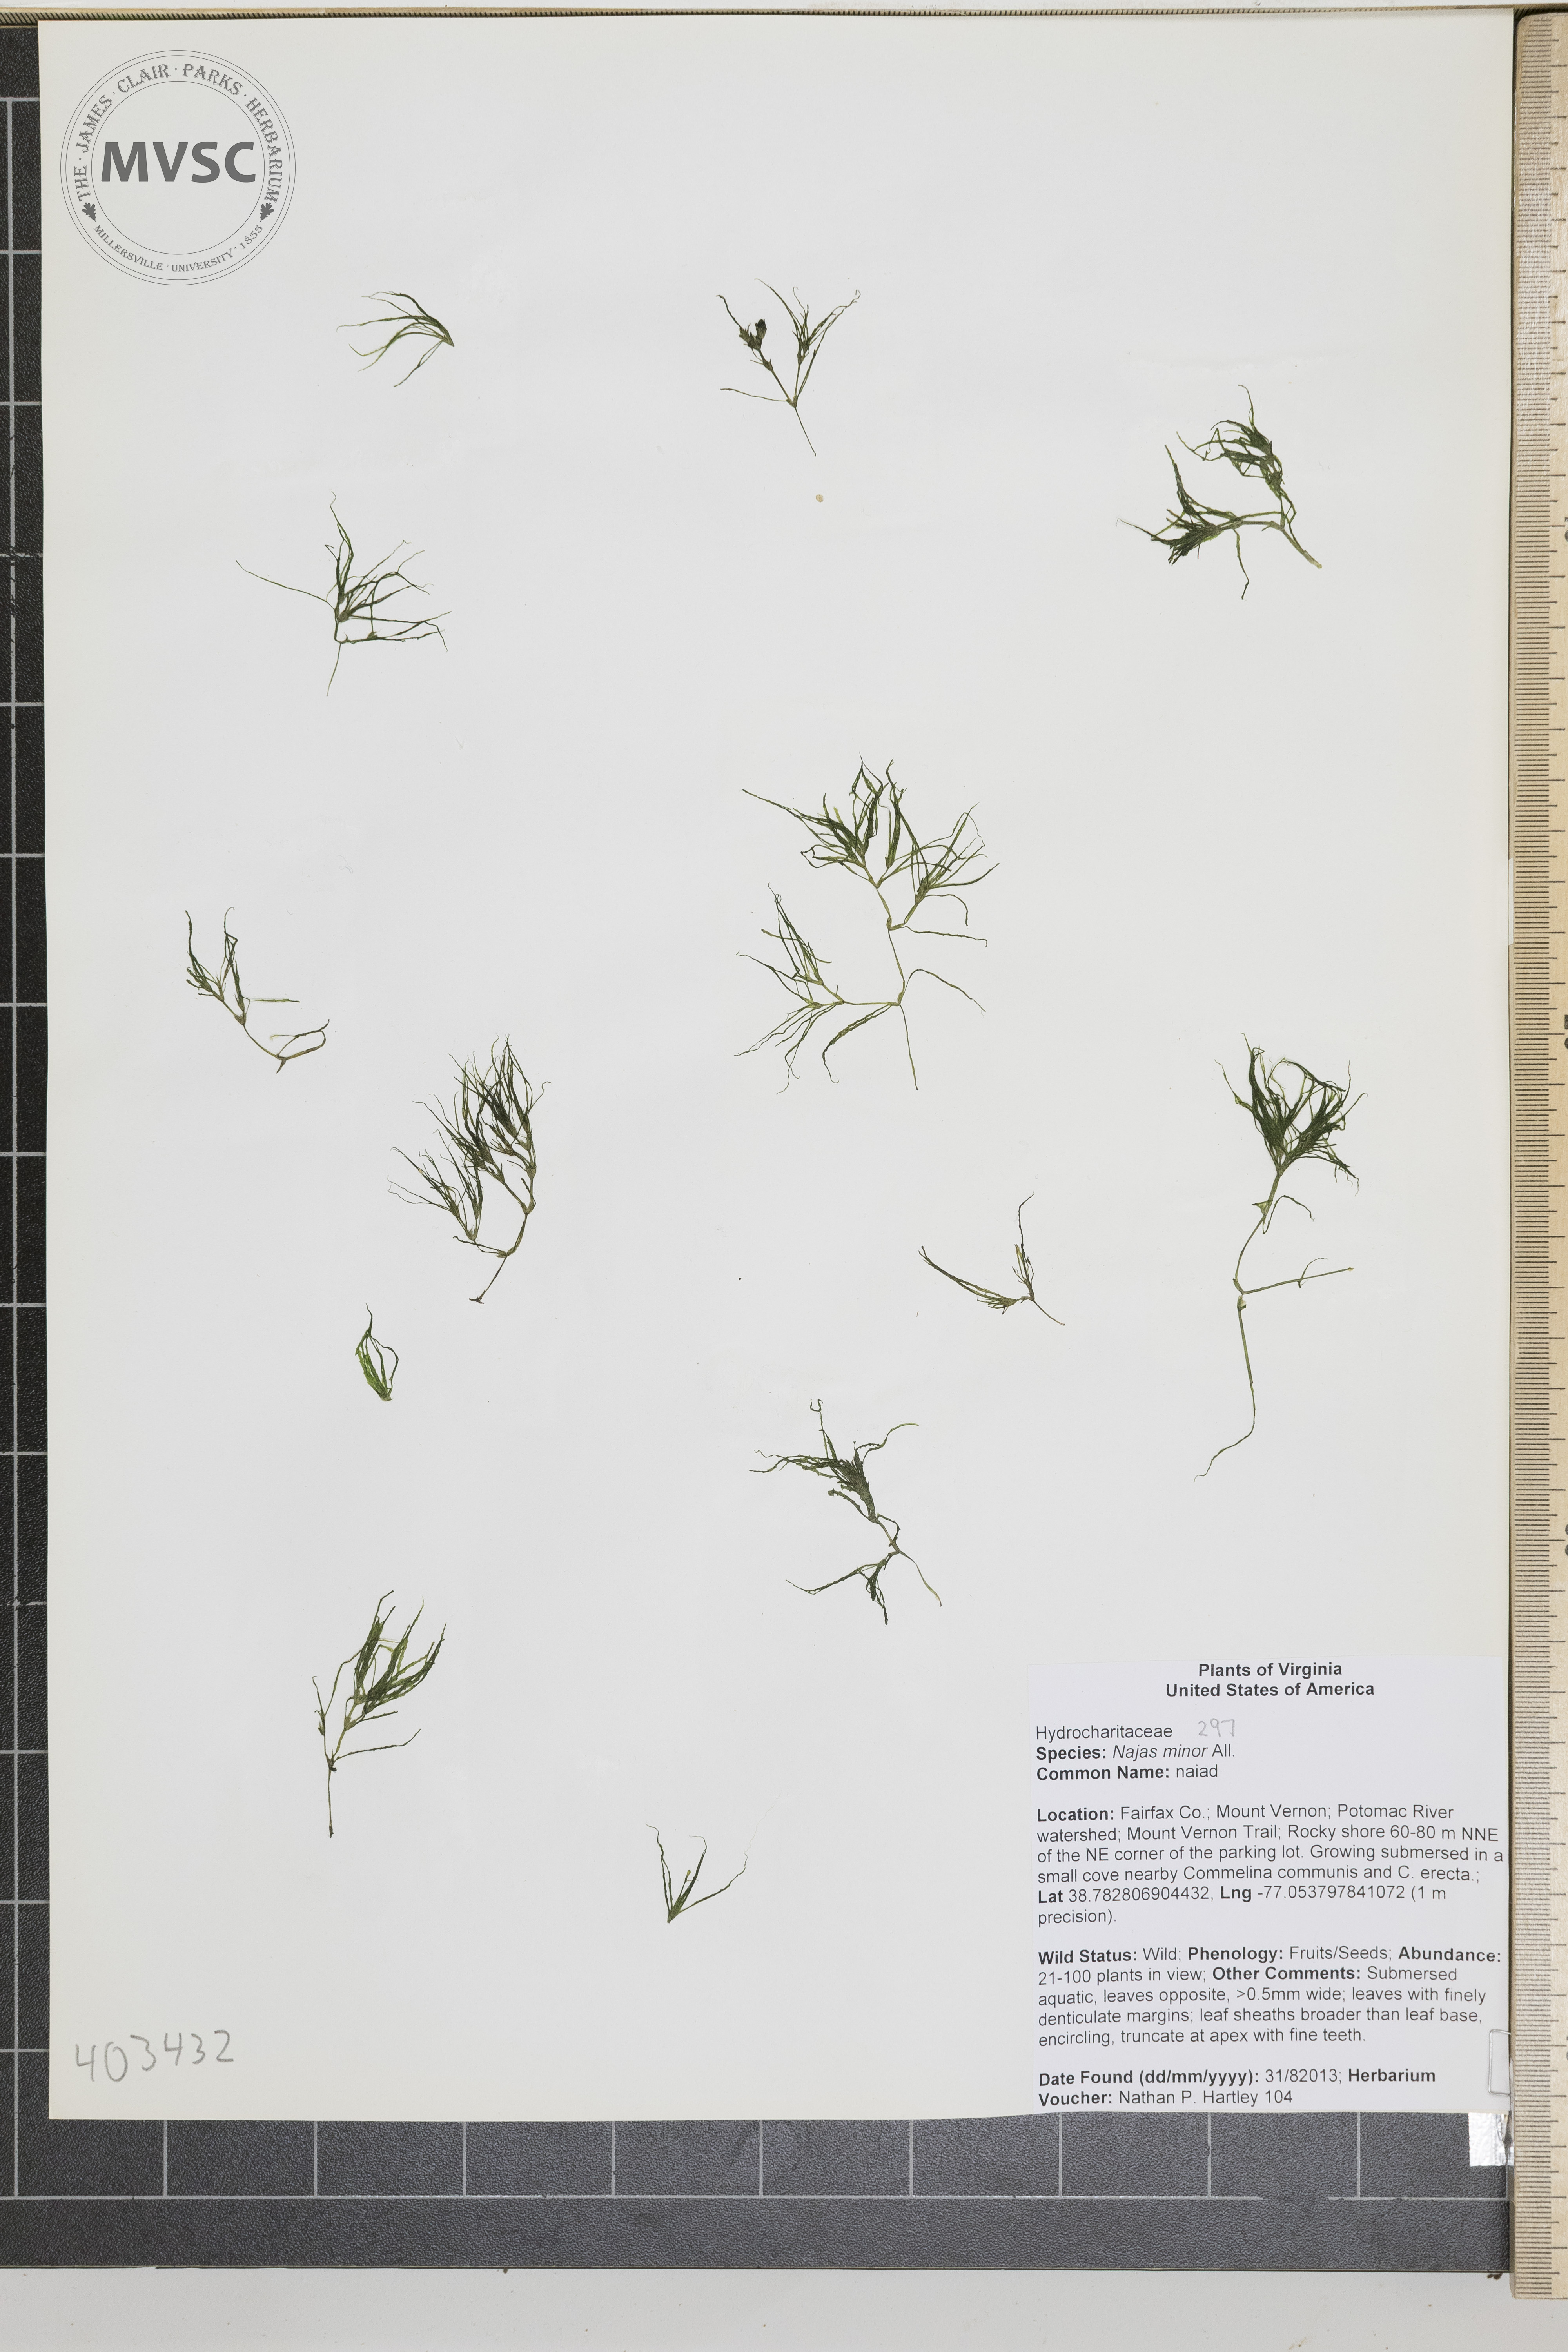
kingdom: Plantae
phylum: Tracheophyta
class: Liliopsida
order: Alismatales
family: Hydrocharitaceae
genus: Najas
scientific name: Najas minor
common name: naiad
